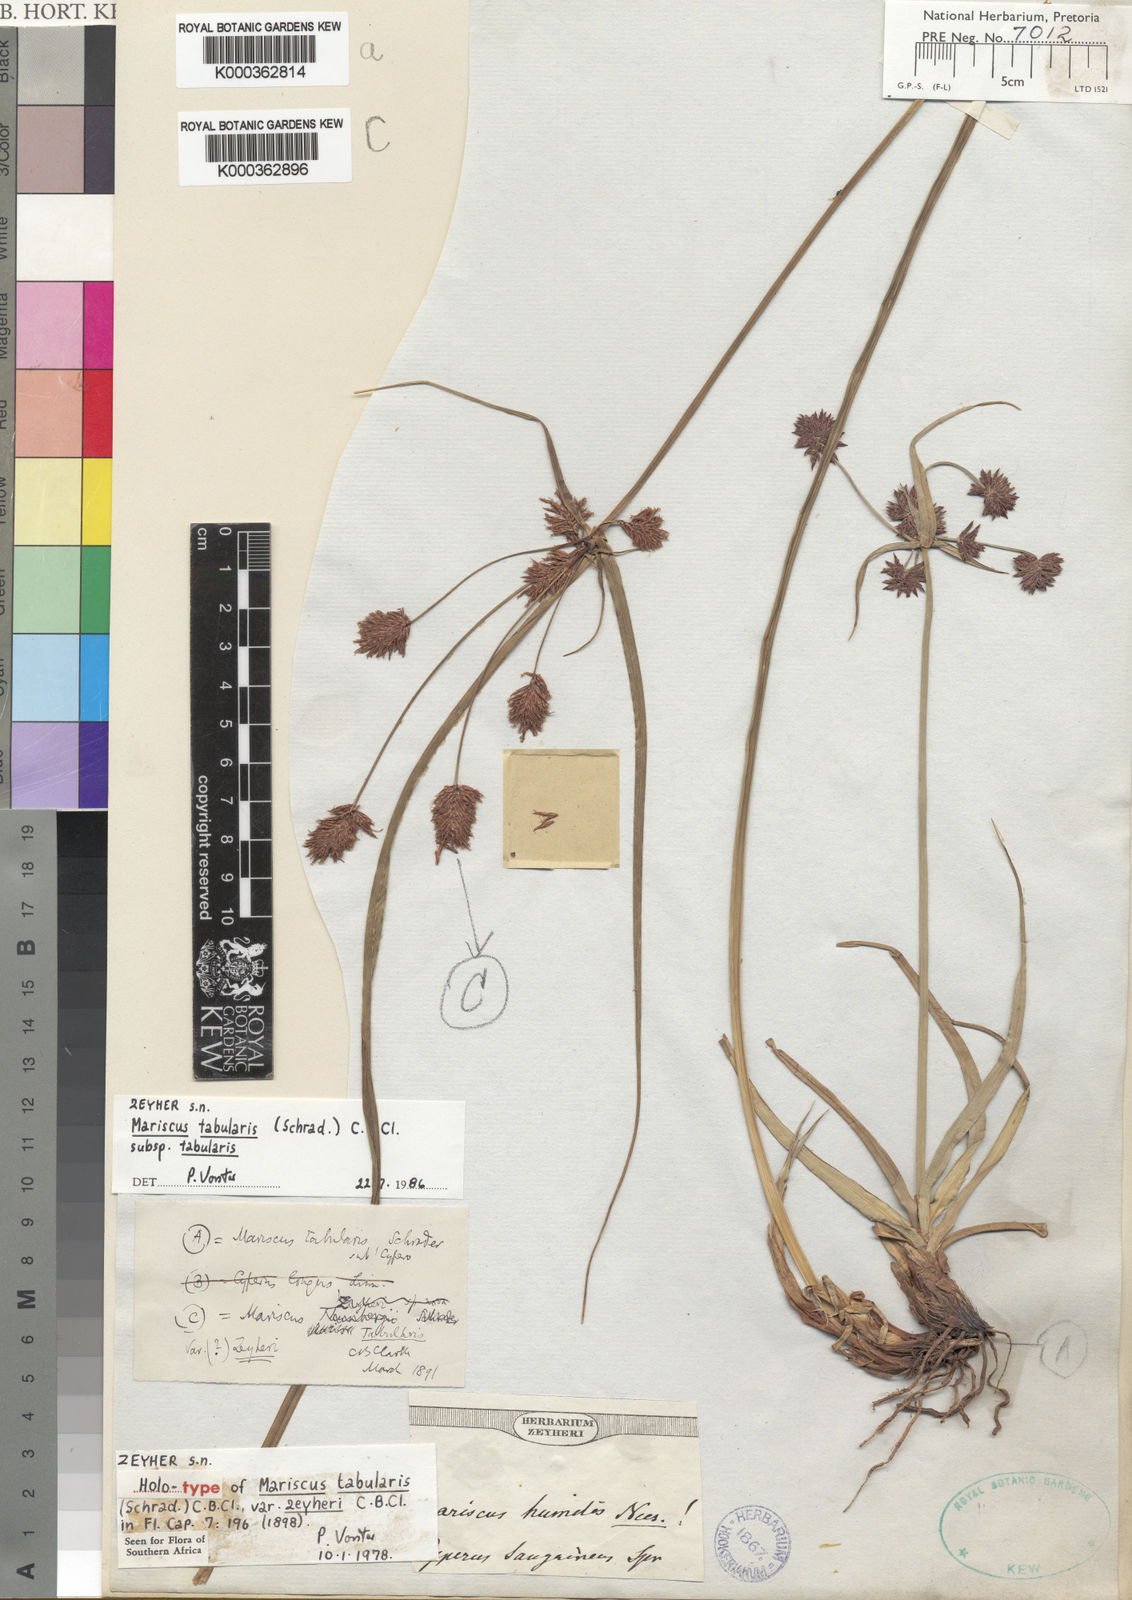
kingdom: Plantae
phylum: Tracheophyta
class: Liliopsida
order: Poales
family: Cyperaceae
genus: Cyperus
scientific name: Cyperus tabularis
